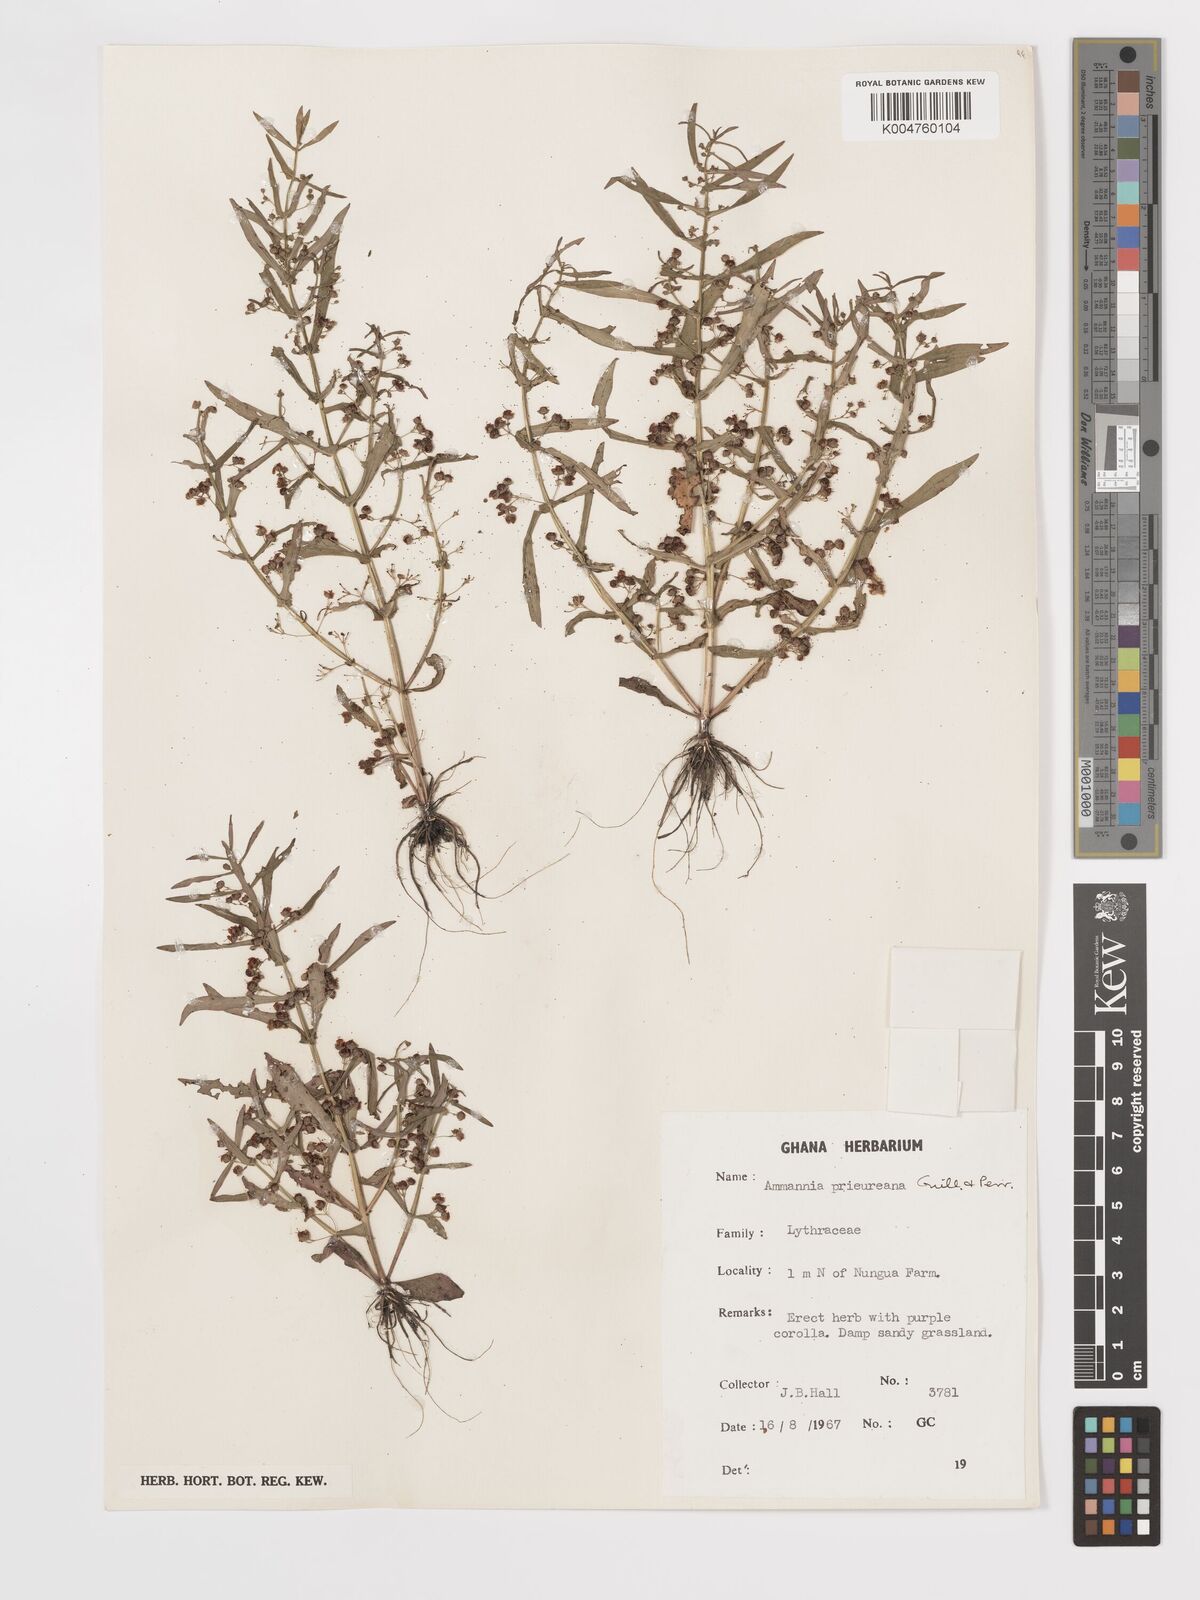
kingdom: Plantae
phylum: Tracheophyta
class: Magnoliopsida
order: Myrtales
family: Lythraceae
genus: Ammannia
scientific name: Ammannia prieuriana
